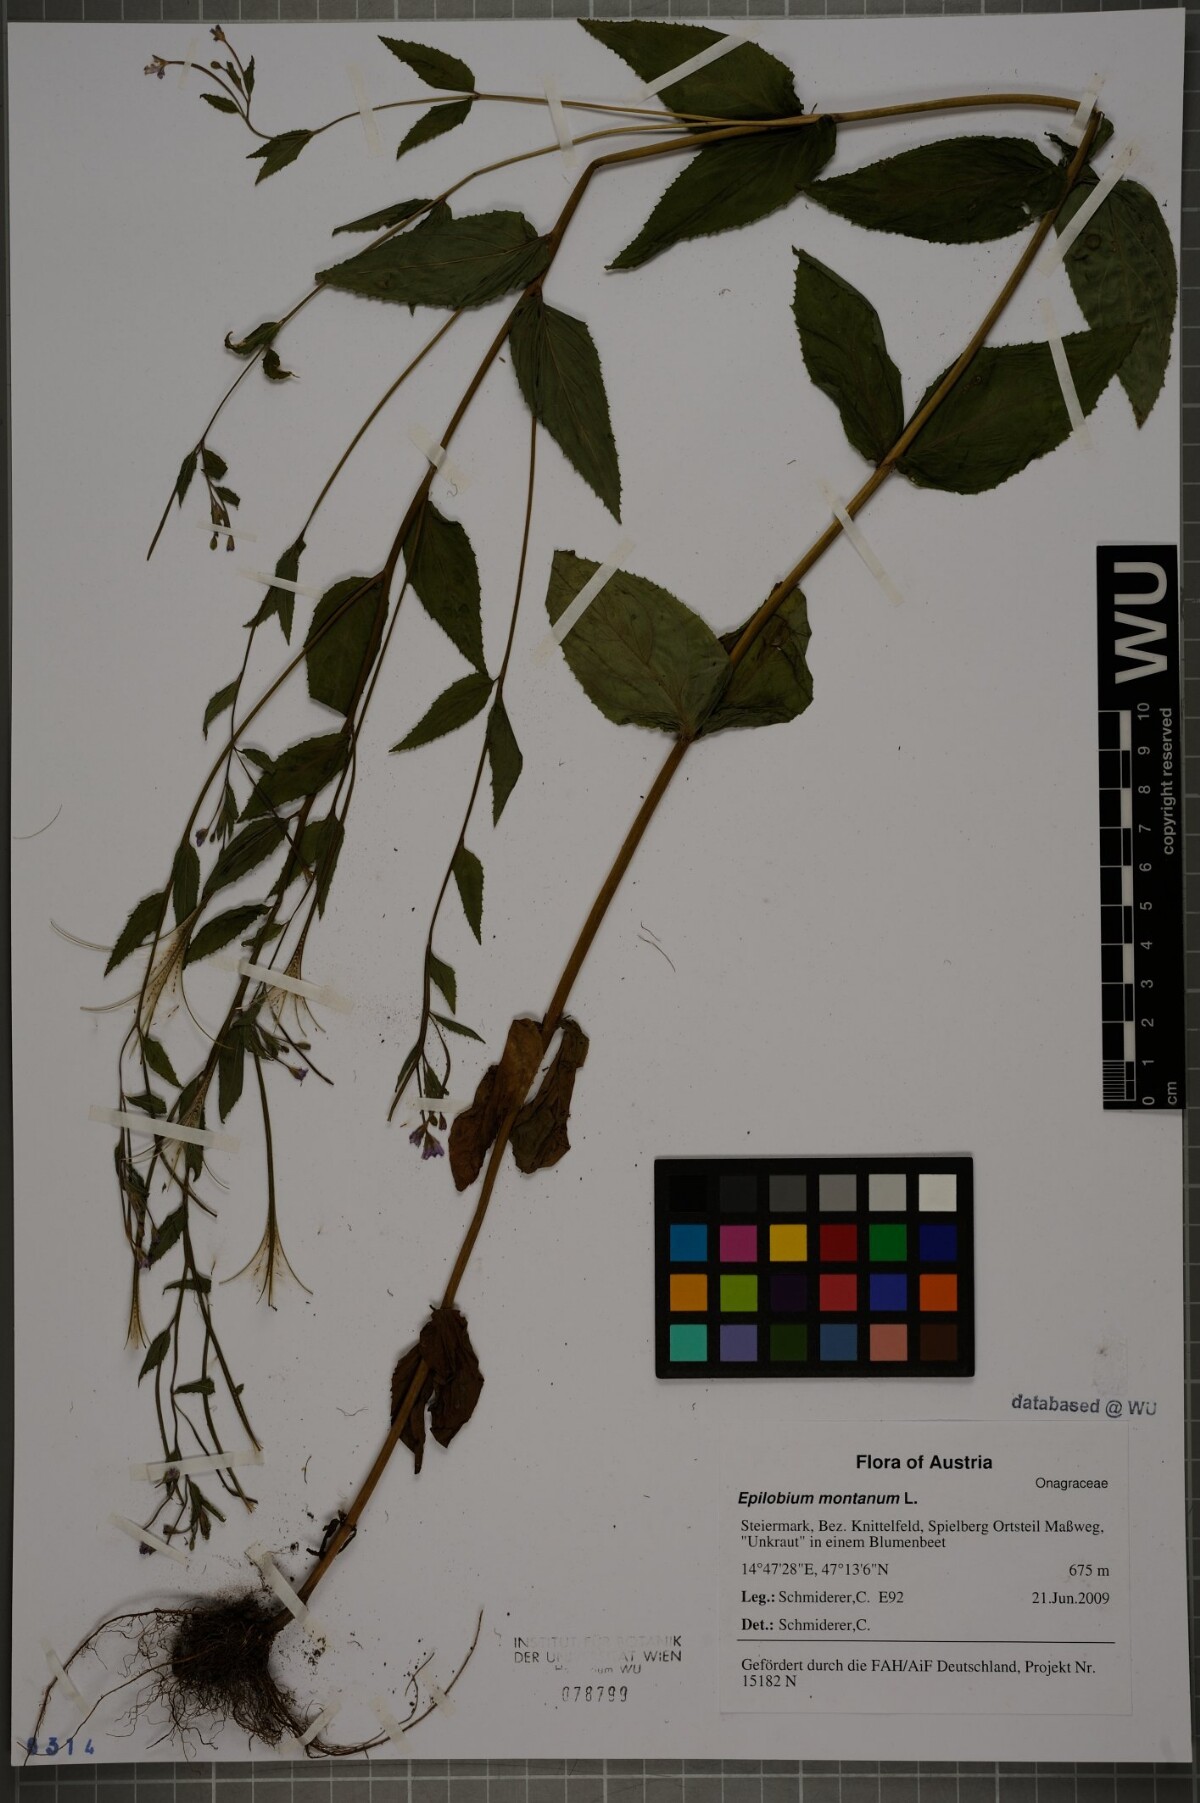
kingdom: Plantae
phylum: Tracheophyta
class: Magnoliopsida
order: Myrtales
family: Onagraceae
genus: Epilobium
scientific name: Epilobium montanum
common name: Broad-leaved willowherb
